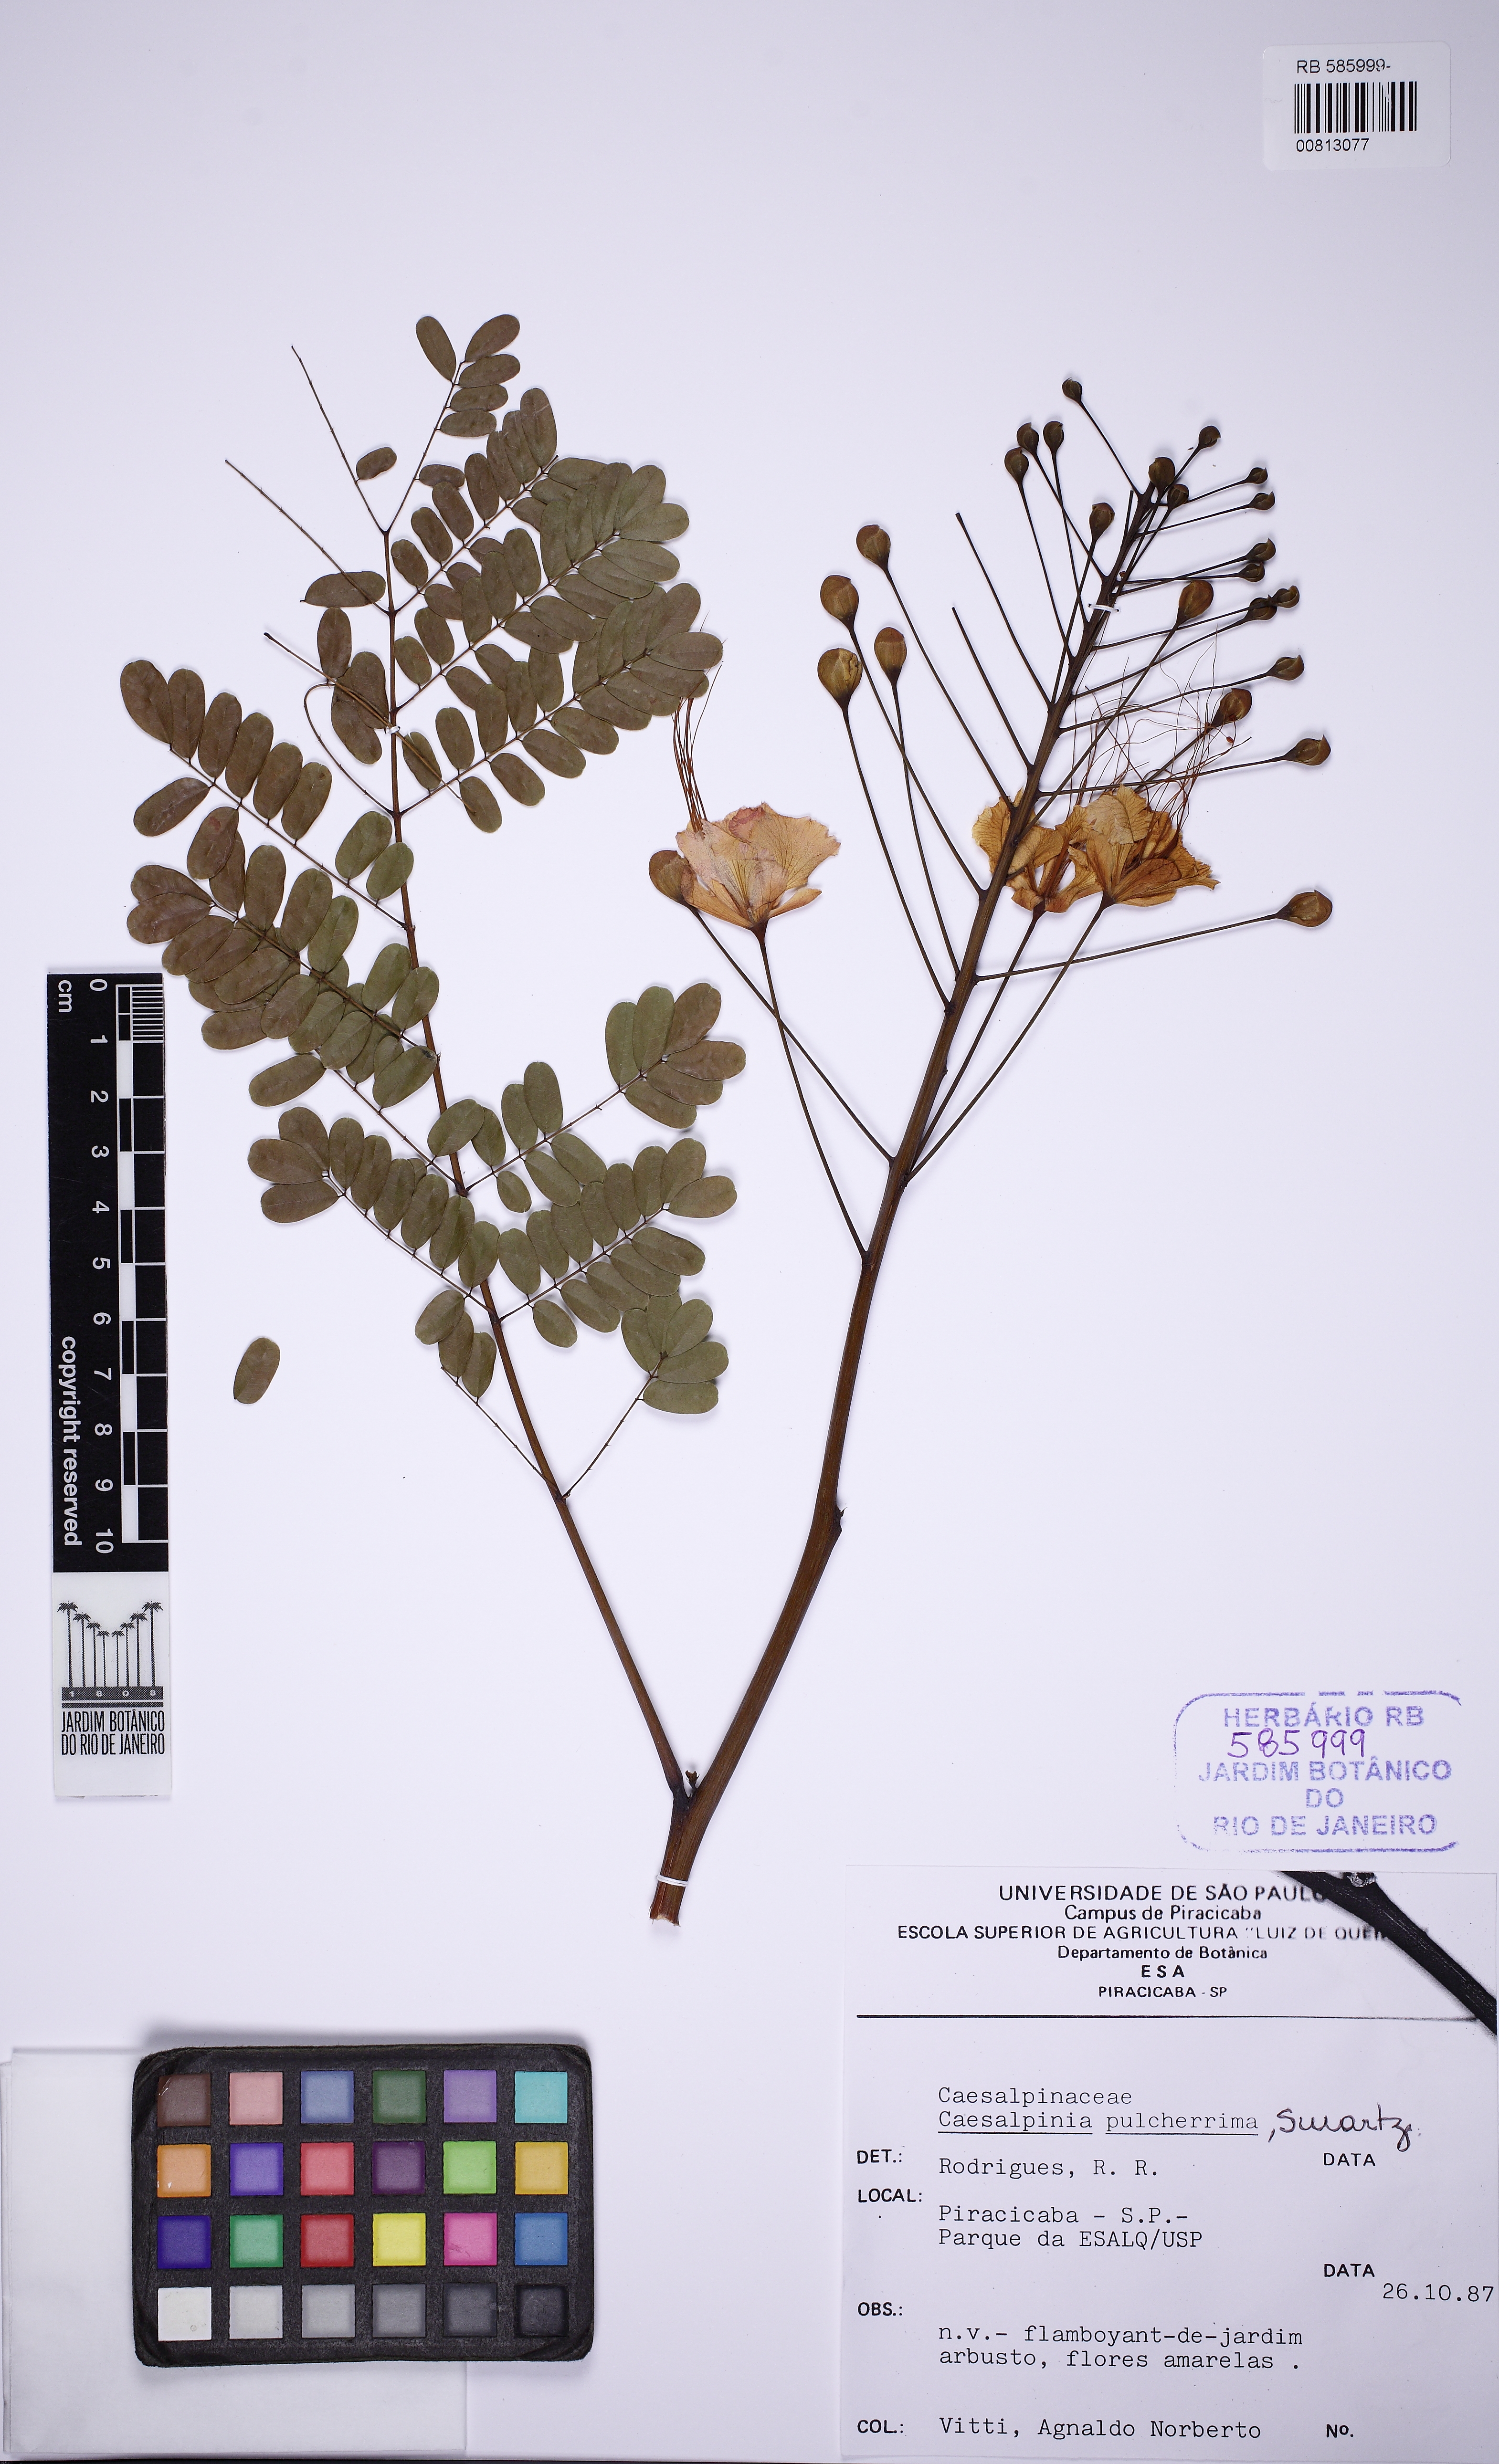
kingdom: Plantae
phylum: Tracheophyta
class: Magnoliopsida
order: Fabales
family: Fabaceae
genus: Caesalpinia
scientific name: Caesalpinia pulcherrima
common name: Pride-of-barbados
